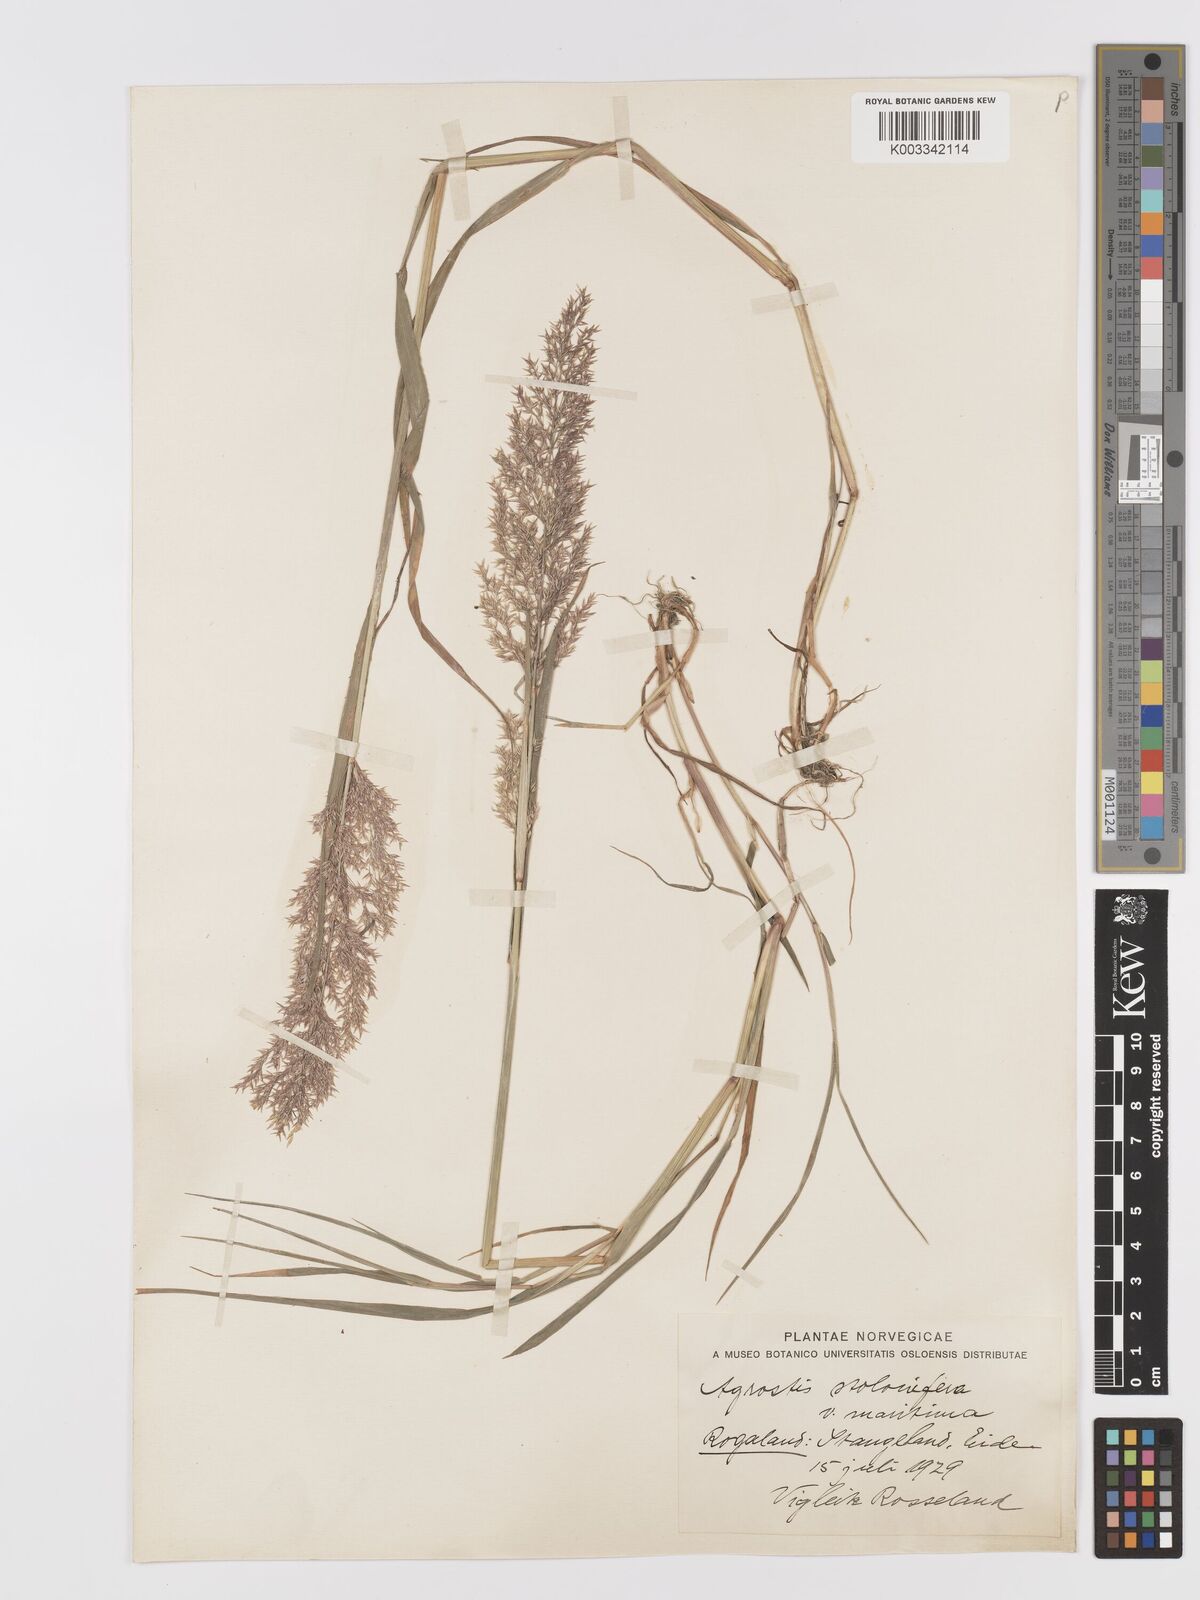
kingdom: Plantae
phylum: Tracheophyta
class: Liliopsida
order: Poales
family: Poaceae
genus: Agrostis
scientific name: Agrostis stolonifera
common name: Creeping bentgrass
